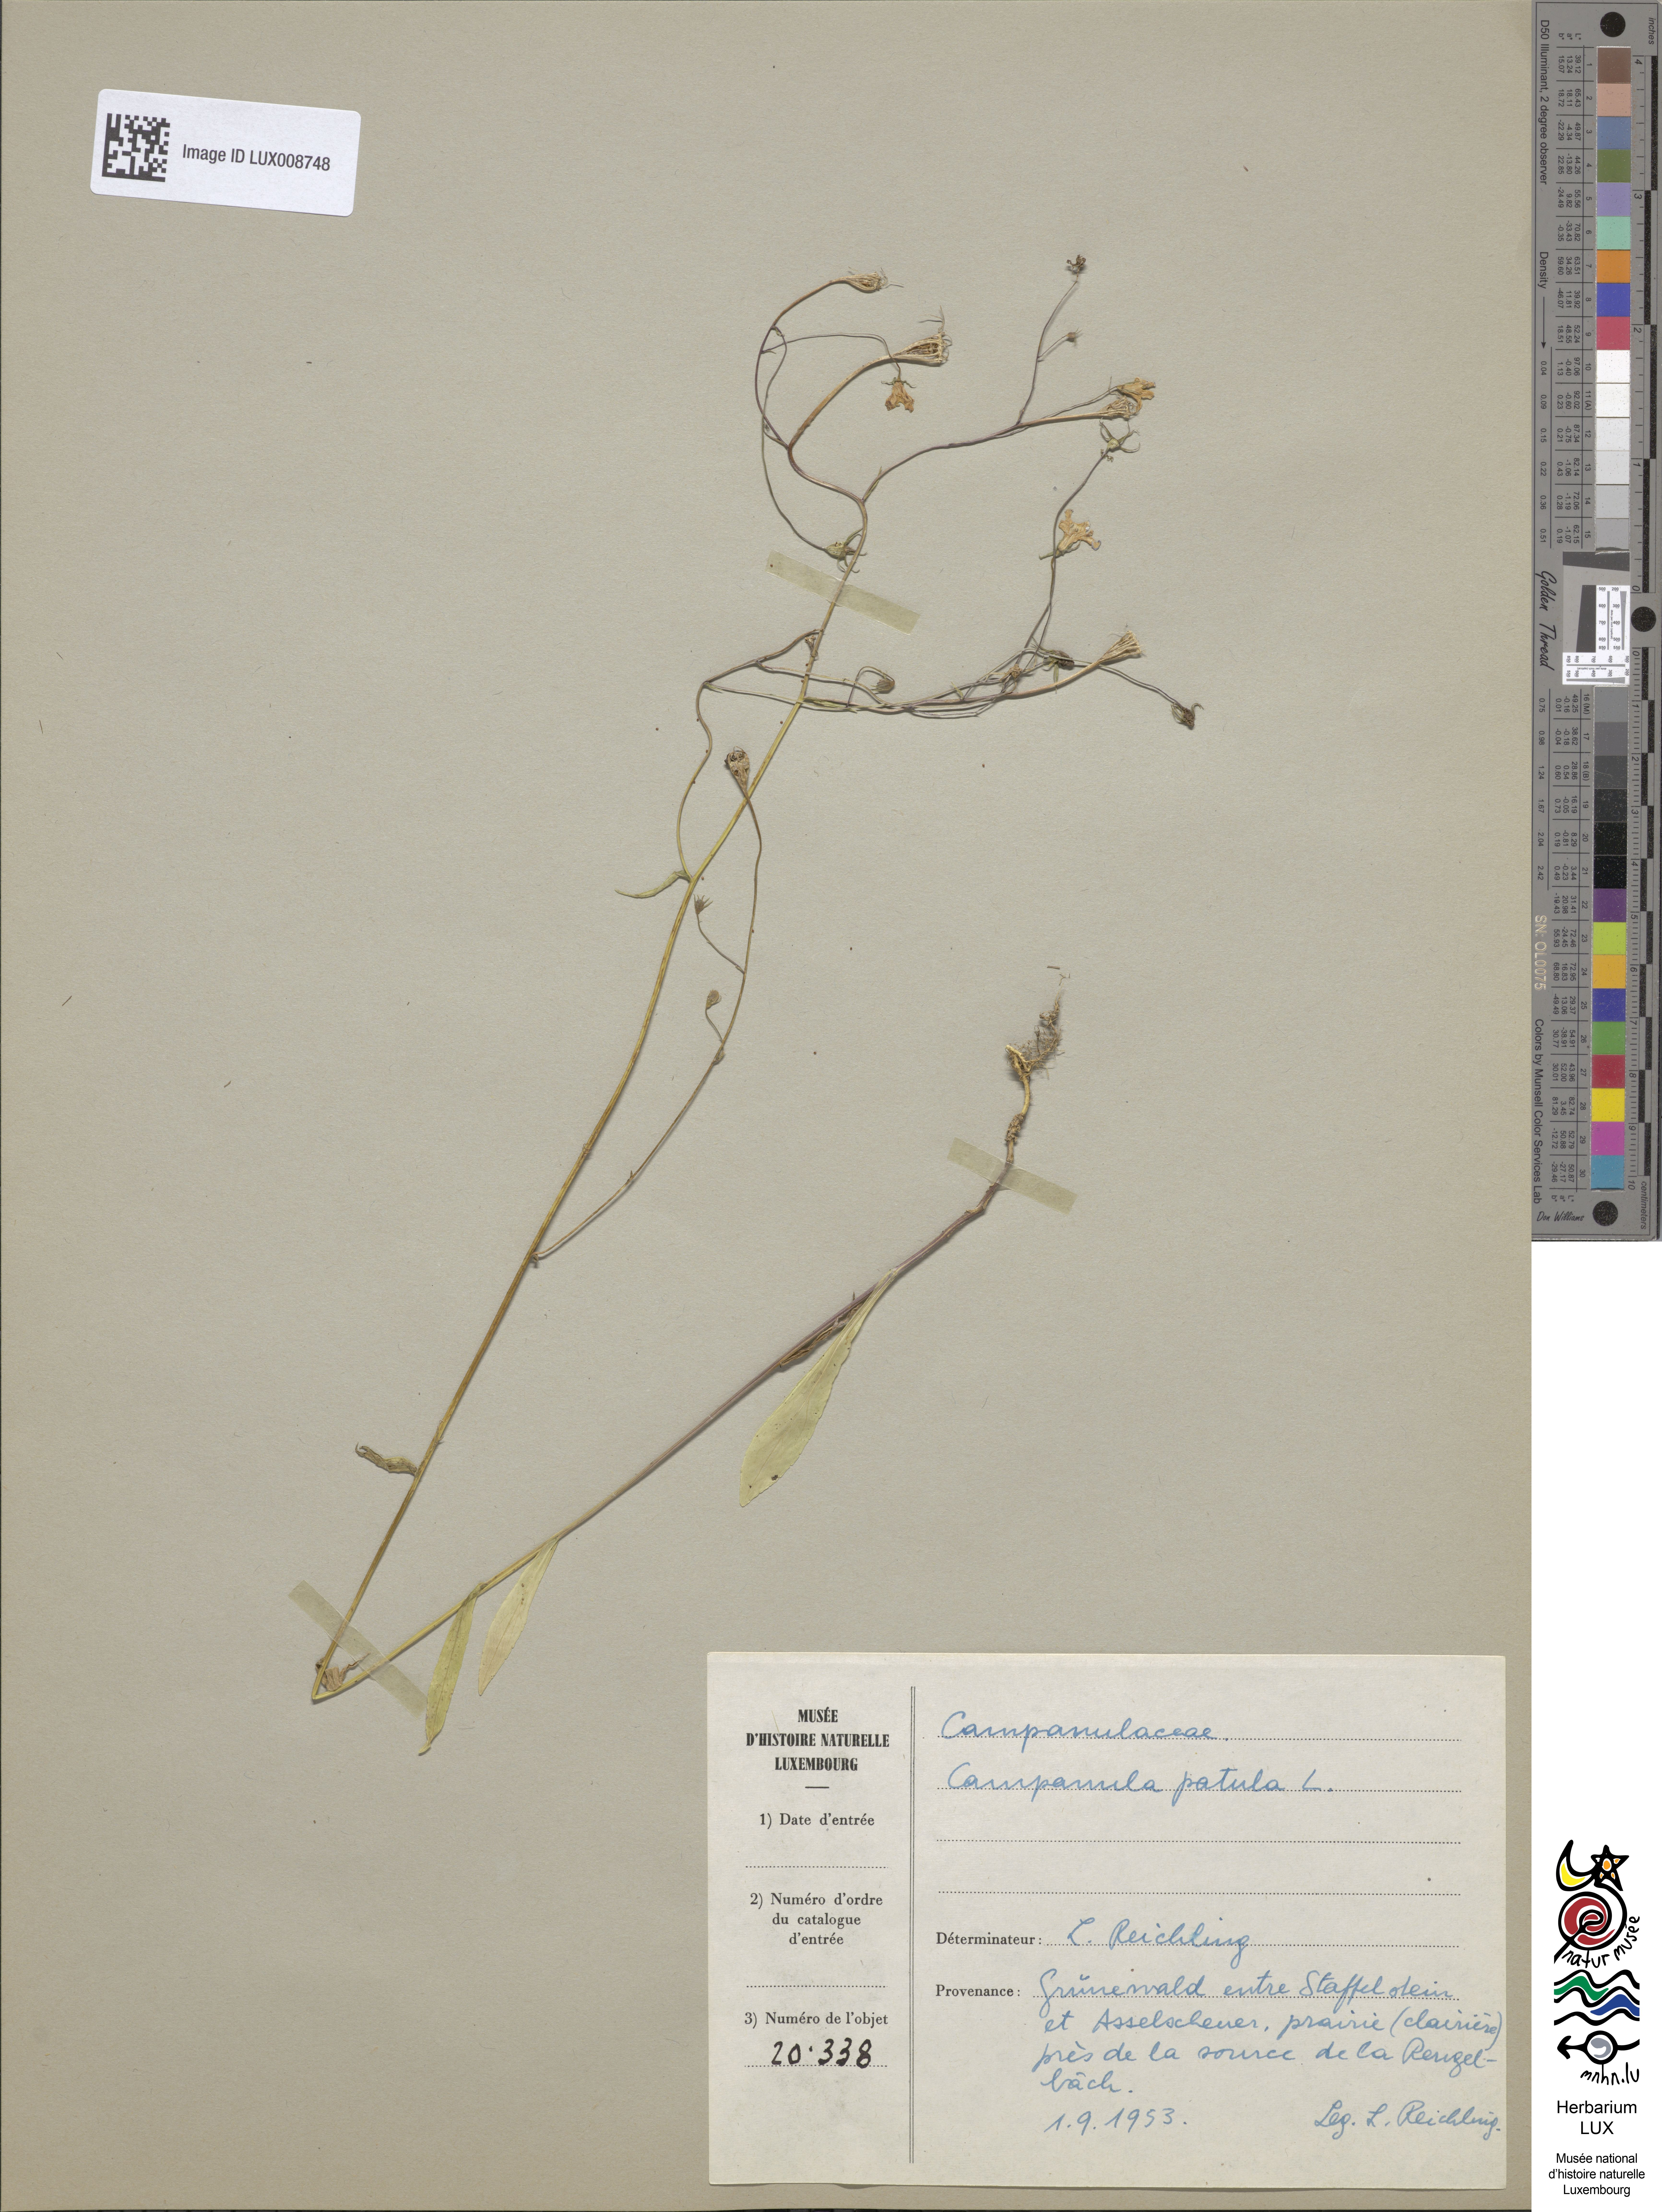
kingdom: Plantae
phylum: Tracheophyta
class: Magnoliopsida
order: Asterales
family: Campanulaceae
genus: Campanula
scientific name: Campanula patula
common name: Spreading bellflower
